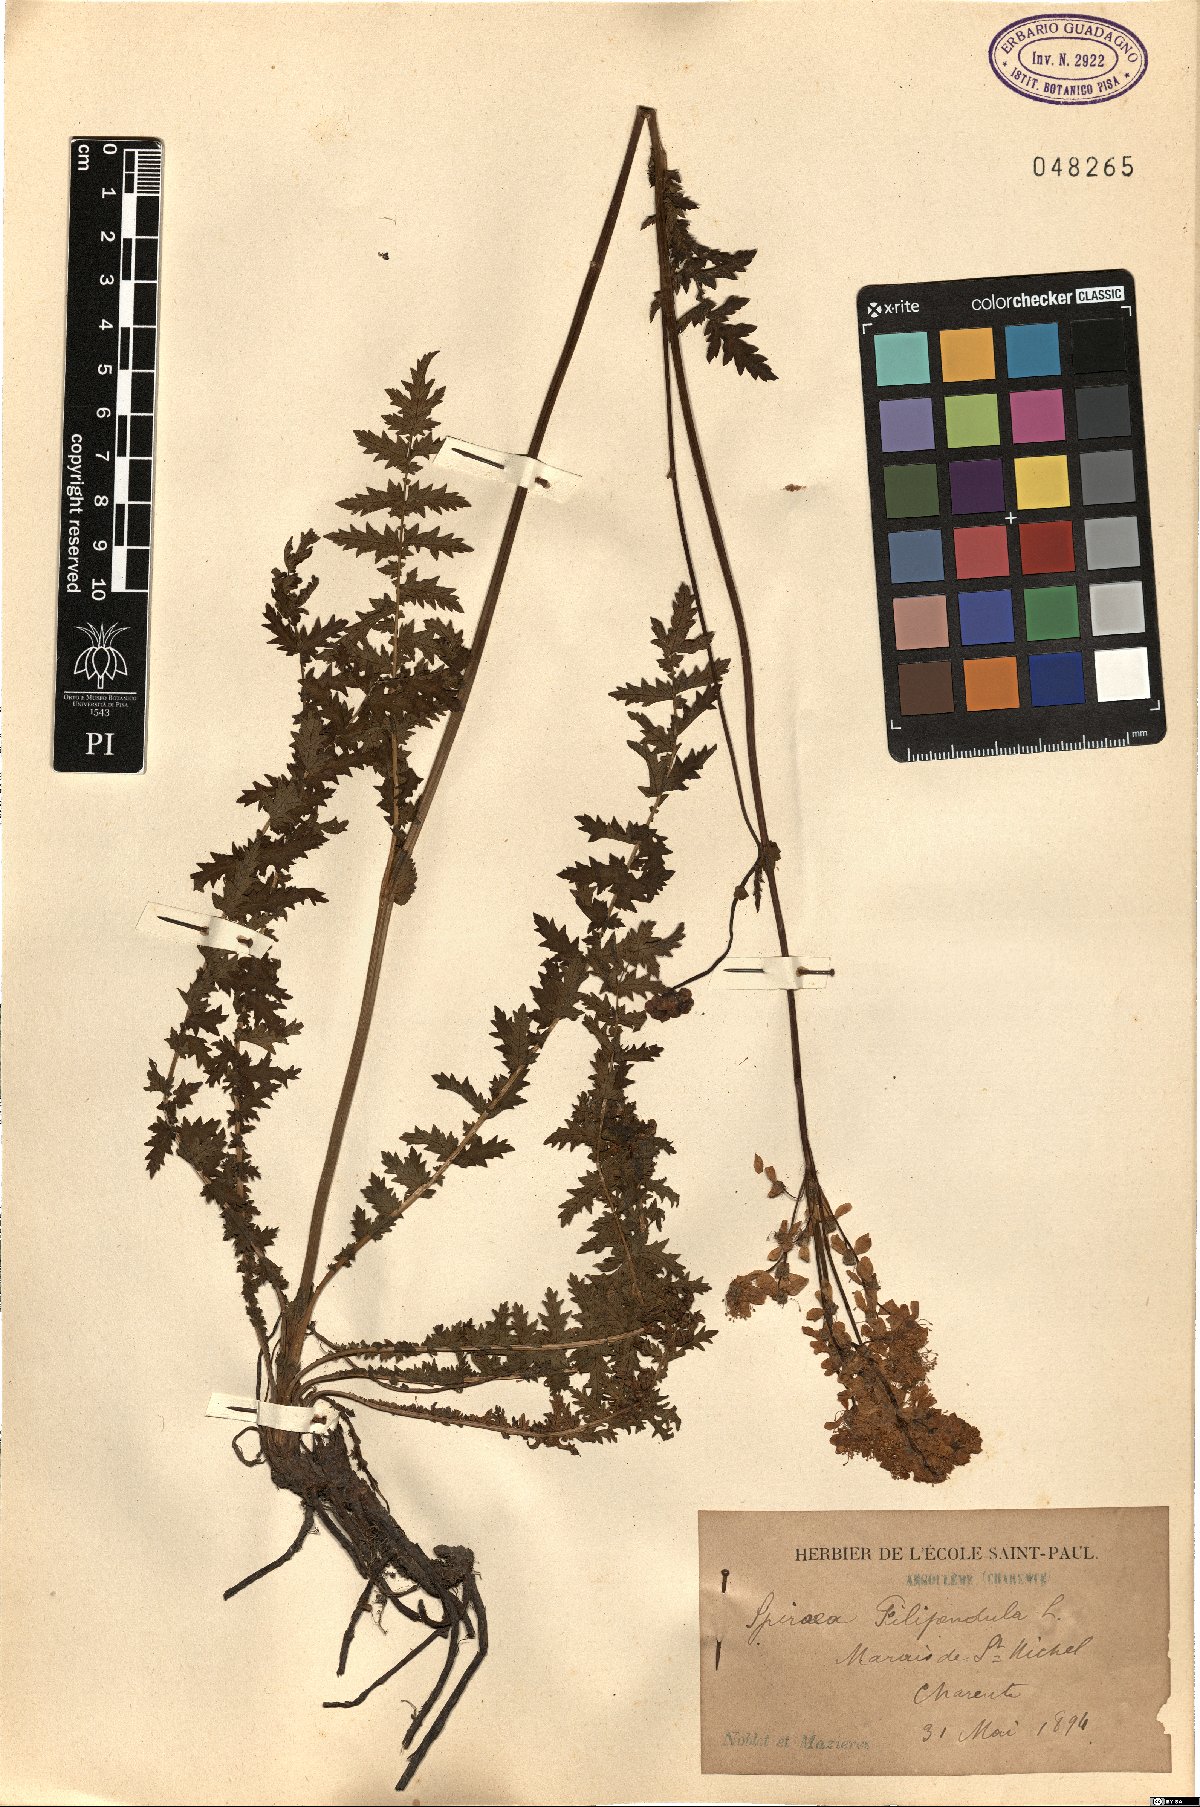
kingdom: Plantae
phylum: Tracheophyta
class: Magnoliopsida
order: Rosales
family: Rosaceae
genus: Filipendula
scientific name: Filipendula vulgaris
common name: Dropwort
